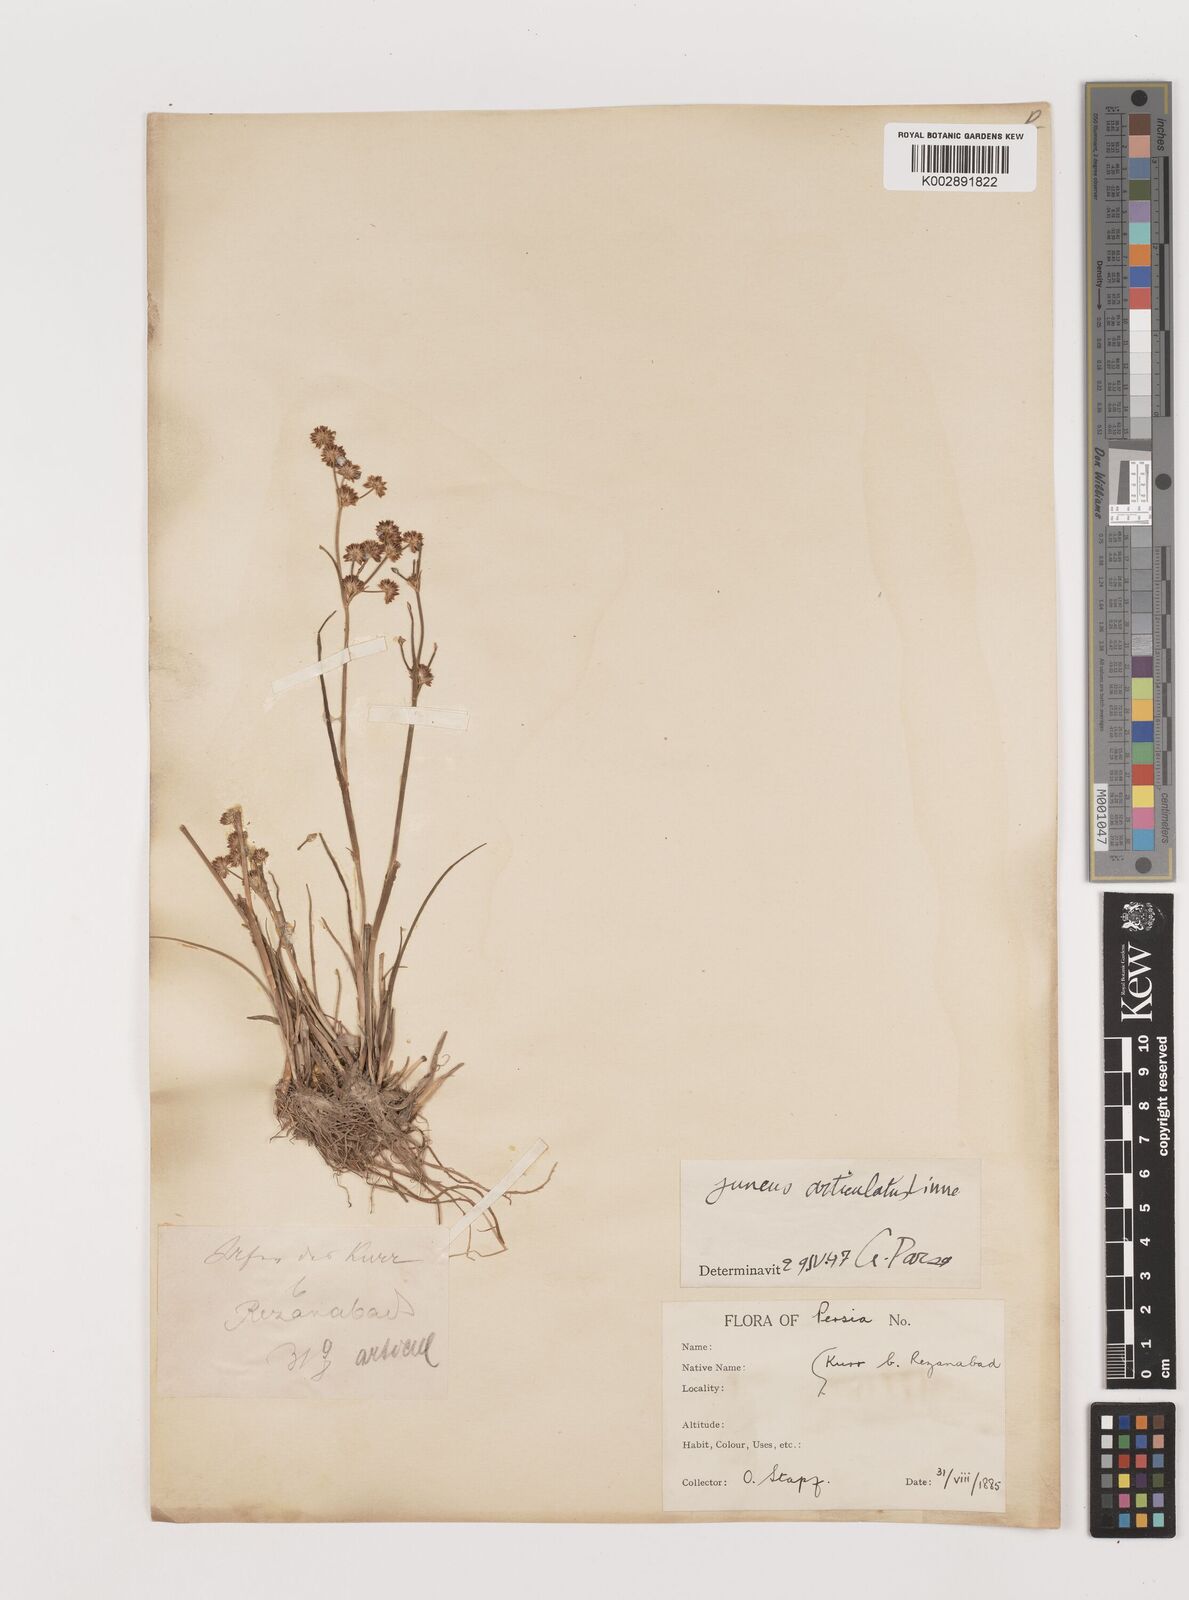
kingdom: Plantae
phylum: Tracheophyta
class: Liliopsida
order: Poales
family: Juncaceae
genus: Juncus
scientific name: Juncus articulatus
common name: Jointed rush
